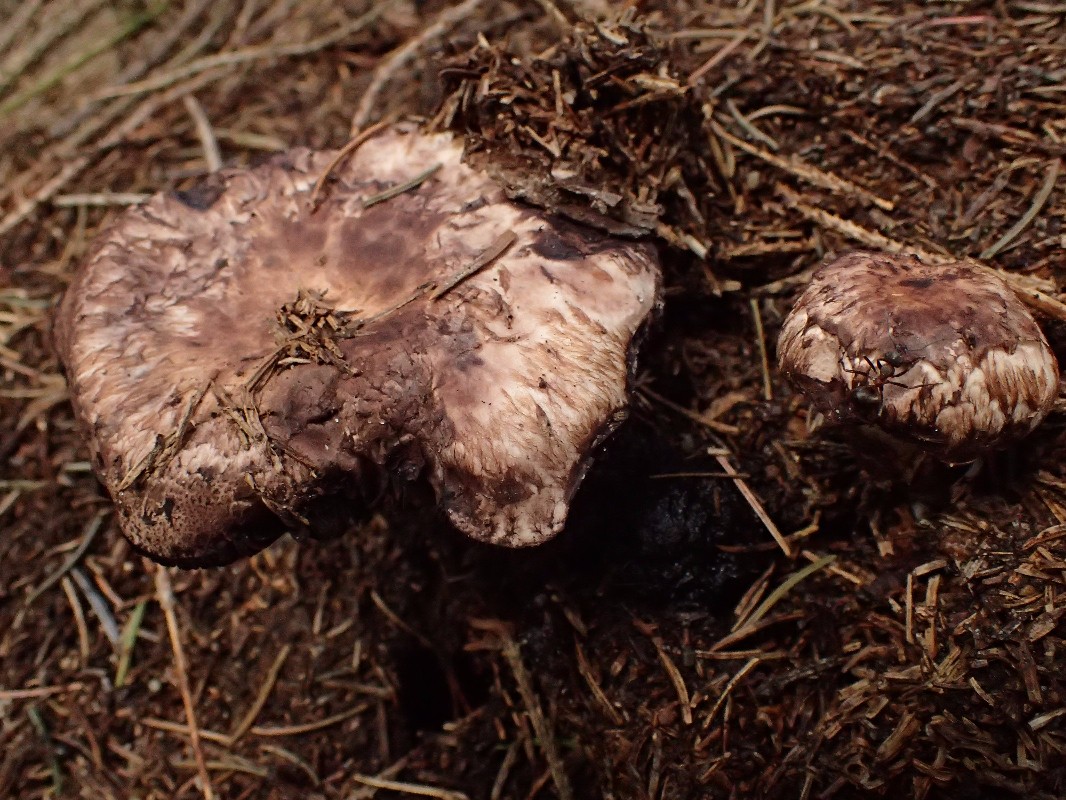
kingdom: Fungi
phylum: Basidiomycota
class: Agaricomycetes
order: Agaricales
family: Agaricaceae
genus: Agaricus
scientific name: Agaricus sylvaticus
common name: lille blod-champignon
